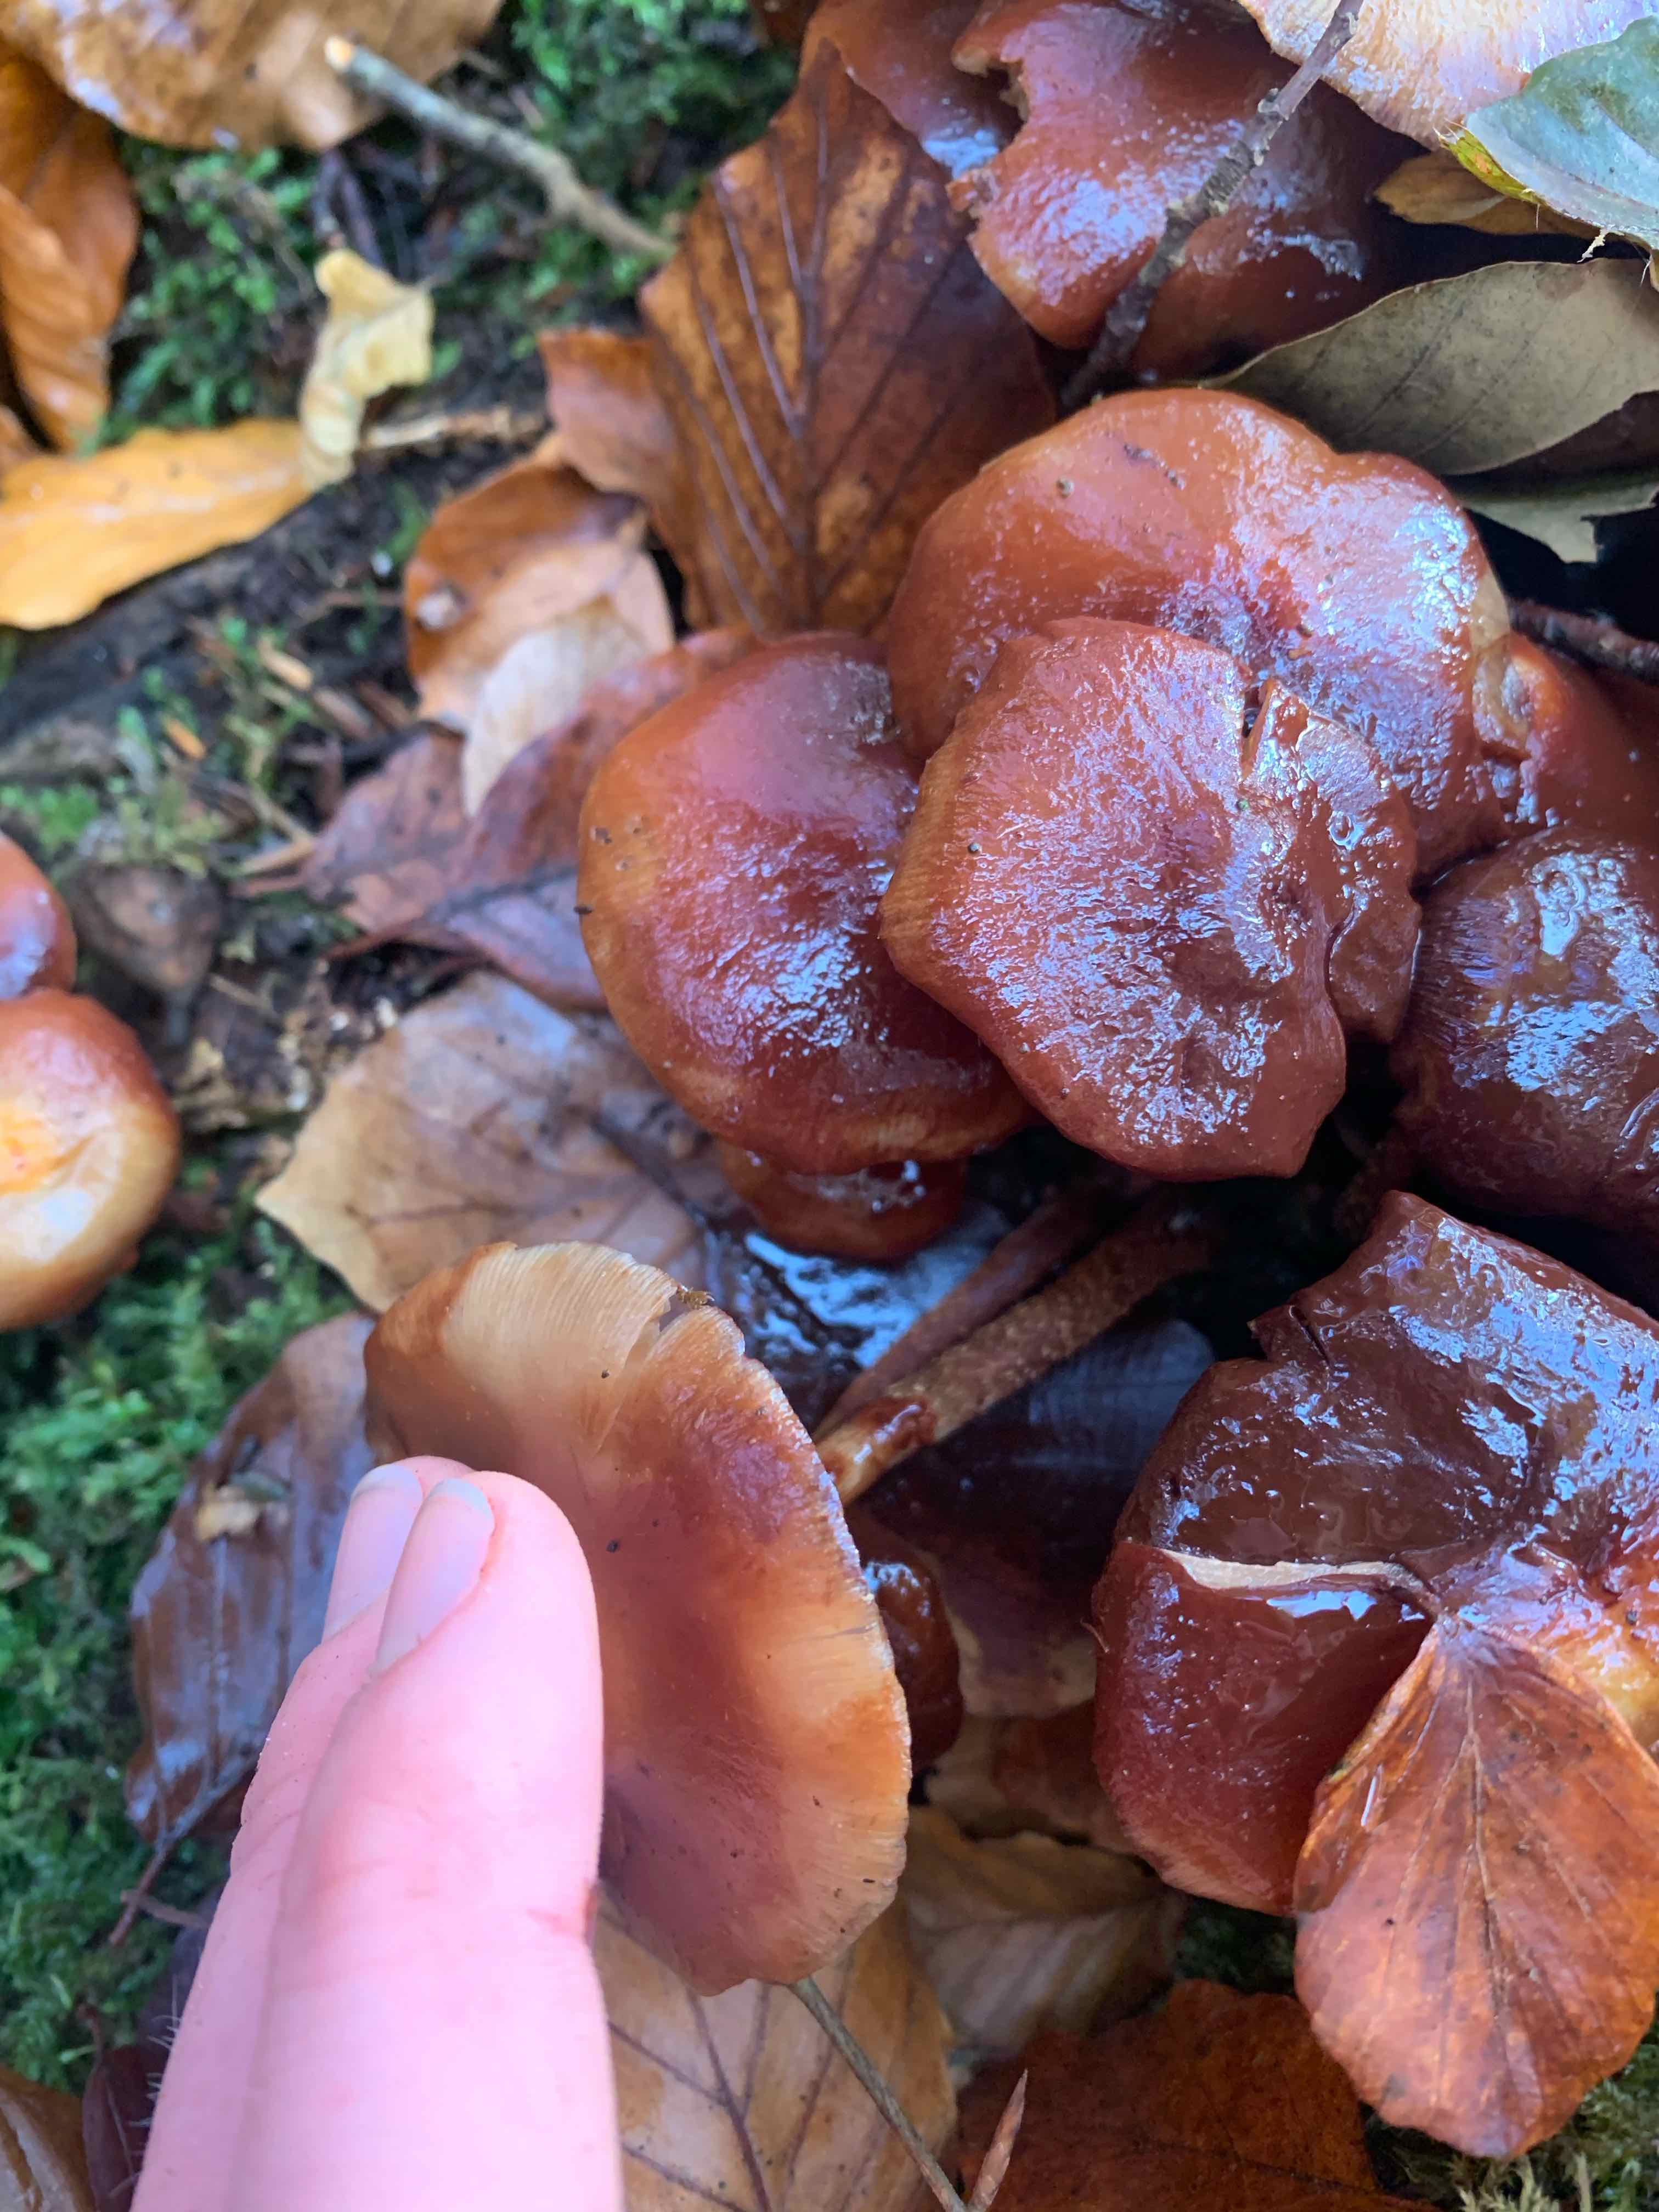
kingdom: Fungi
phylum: Basidiomycota
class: Agaricomycetes
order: Agaricales
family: Strophariaceae
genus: Kuehneromyces
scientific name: Kuehneromyces mutabilis
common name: foranderlig skælhat
